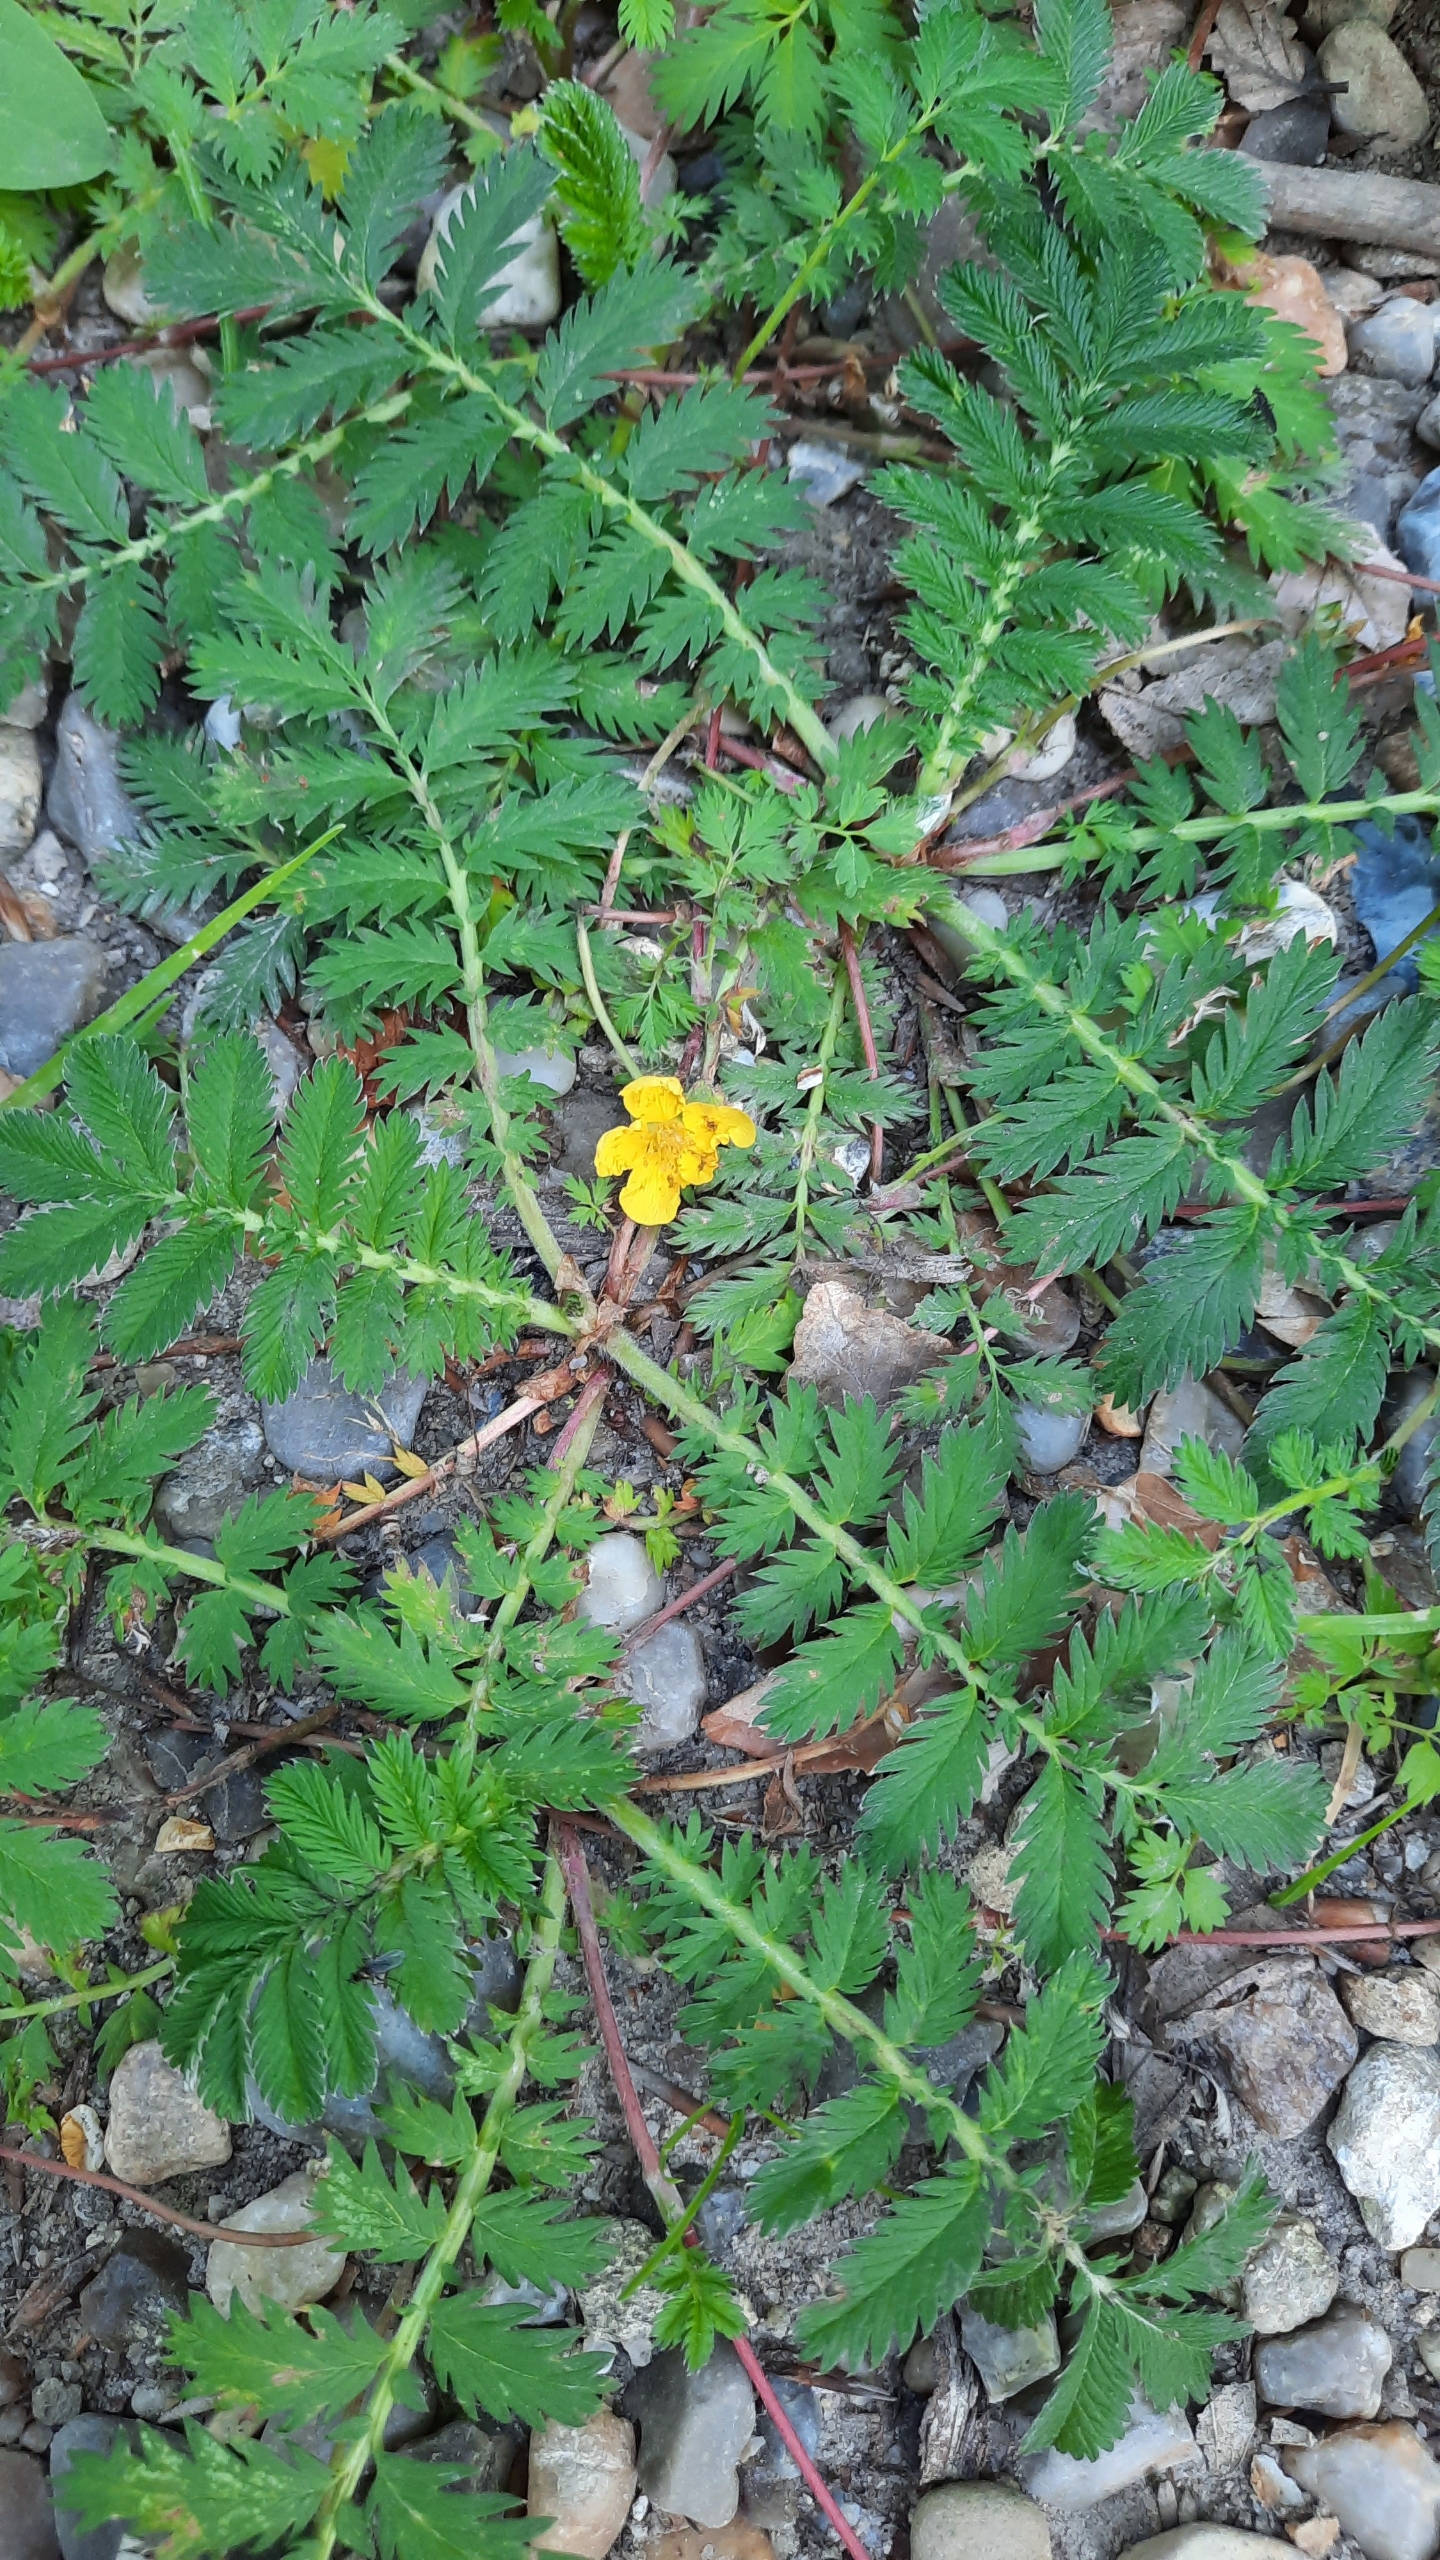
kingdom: Plantae
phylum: Tracheophyta
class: Magnoliopsida
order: Rosales
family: Rosaceae
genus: Argentina
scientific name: Argentina anserina
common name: Gåsepotentil
